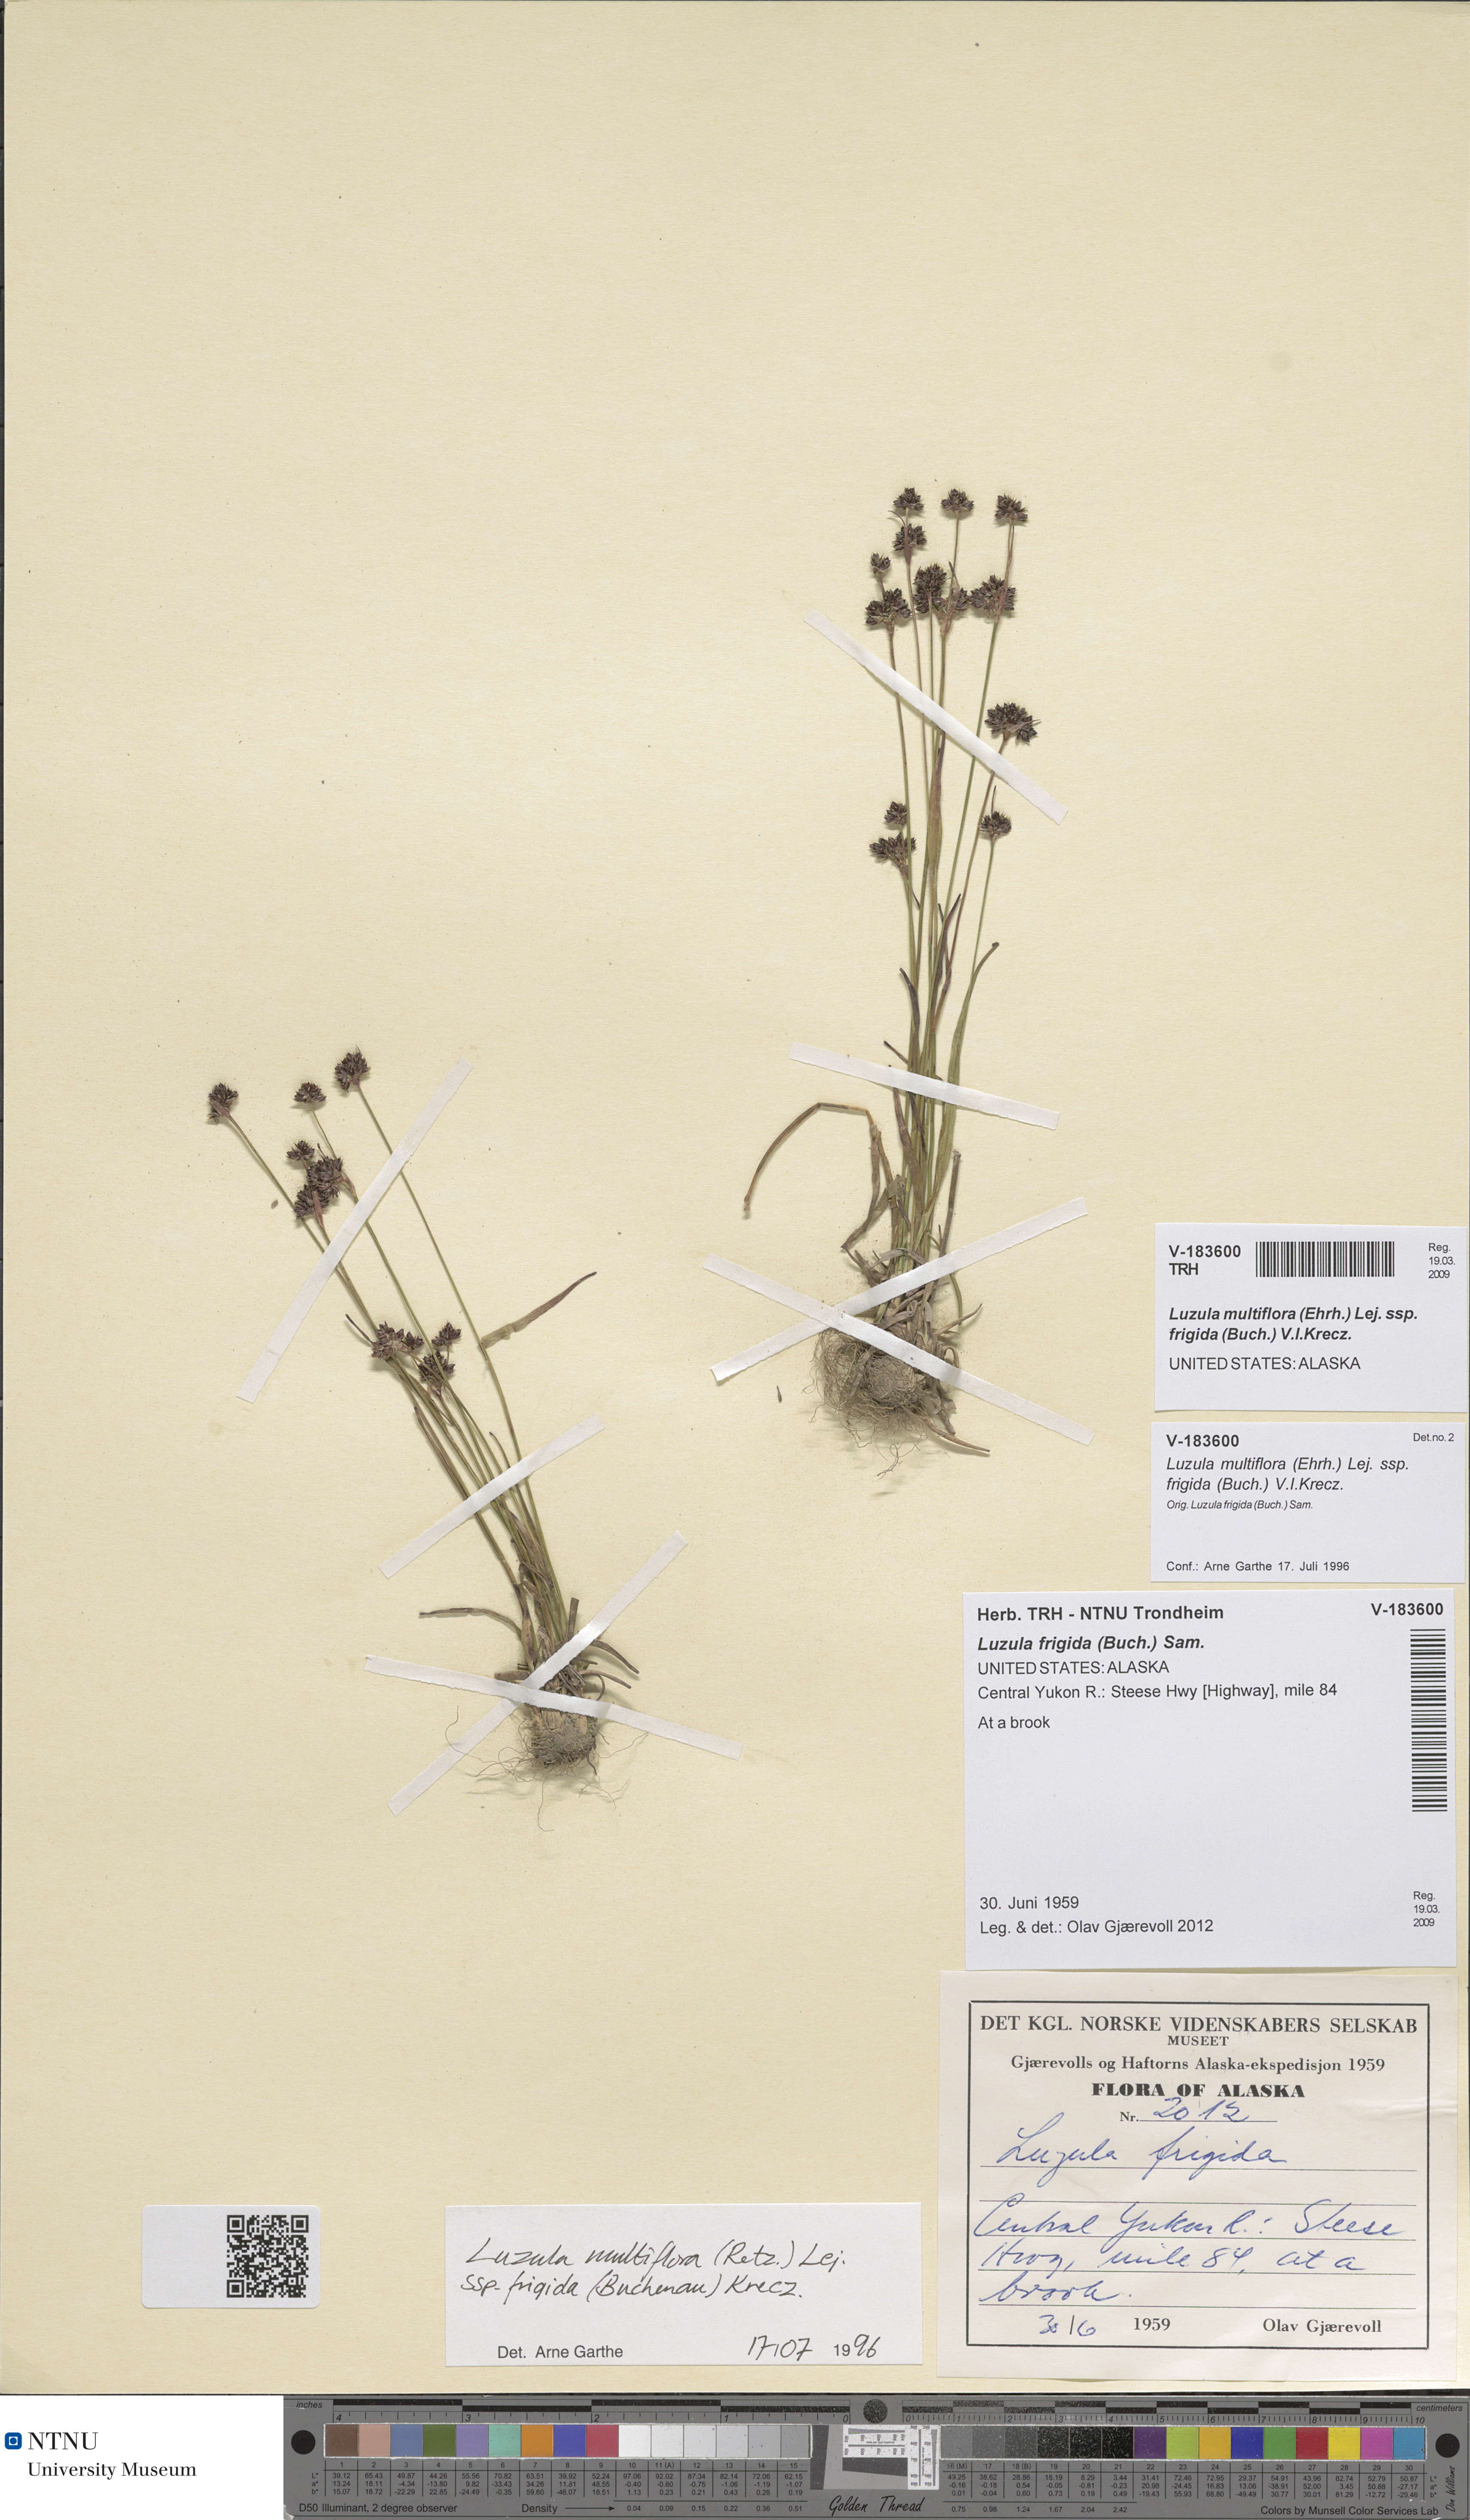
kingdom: Plantae
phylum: Tracheophyta
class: Liliopsida
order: Poales
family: Juncaceae
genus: Luzula
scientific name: Luzula multiflora
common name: Heath wood-rush
